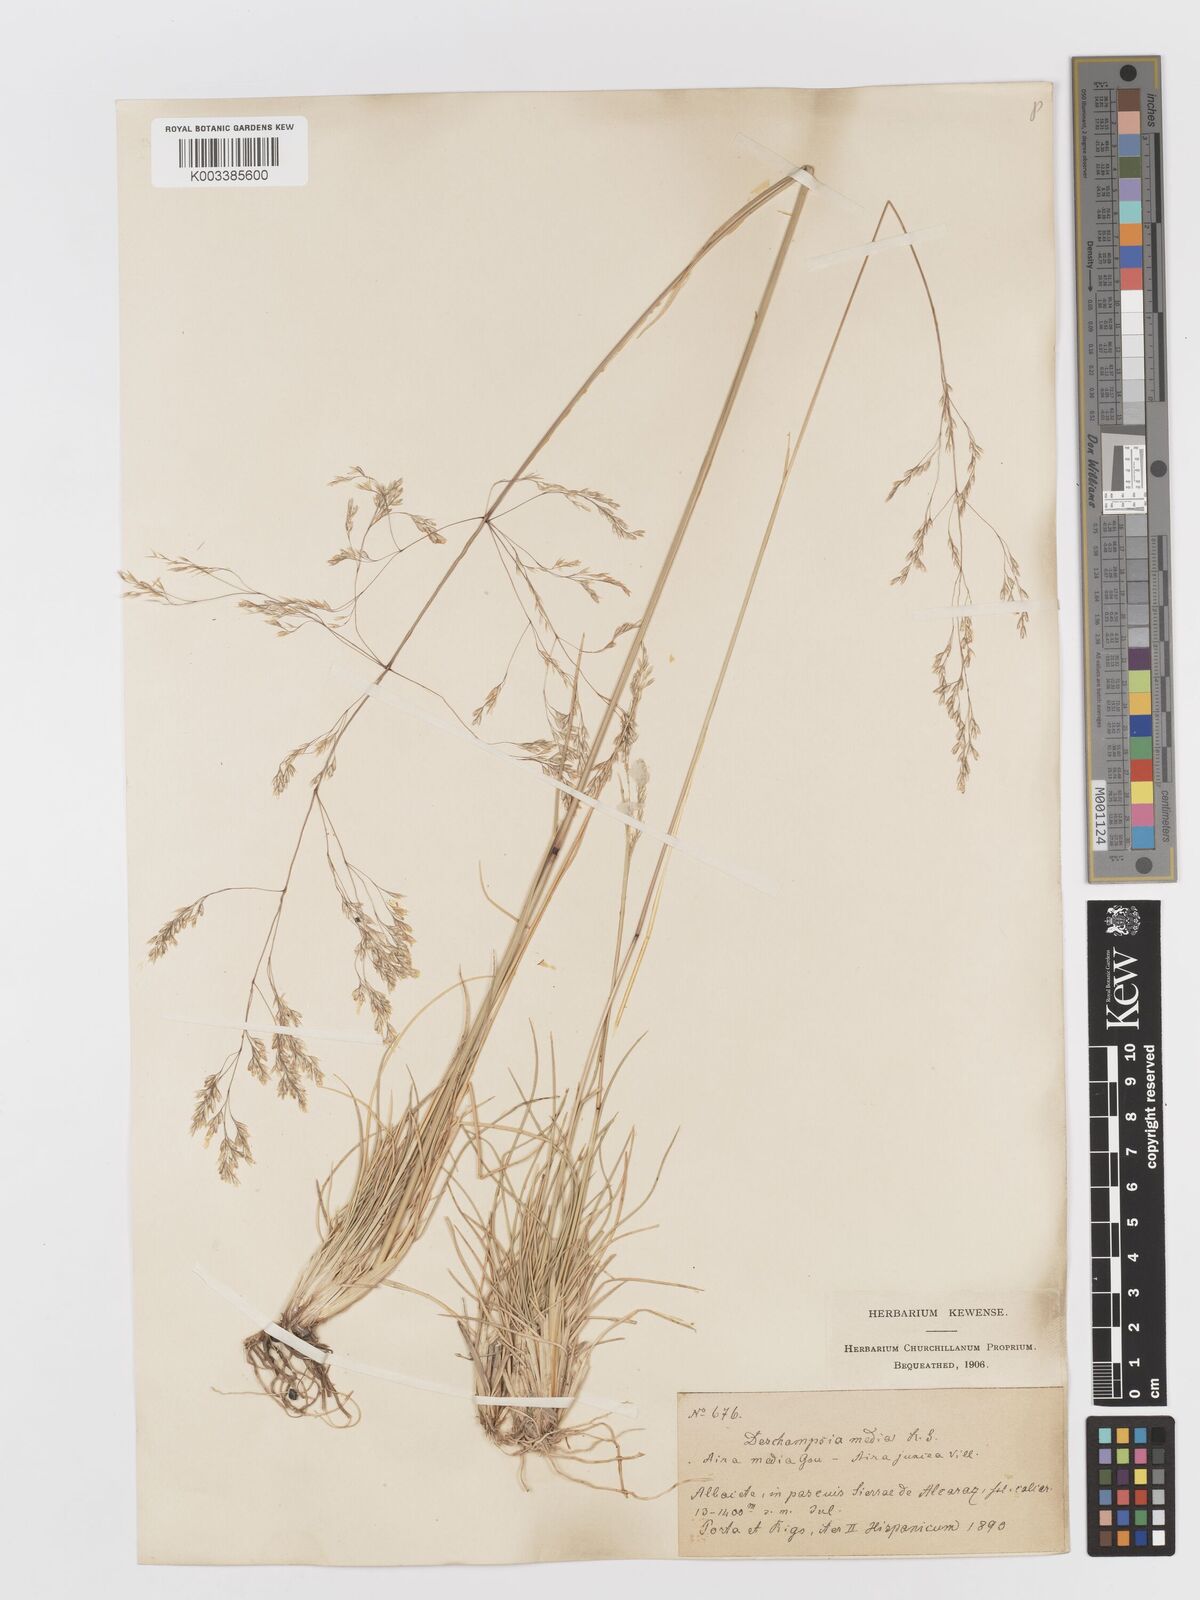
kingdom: Plantae
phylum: Tracheophyta
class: Liliopsida
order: Poales
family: Poaceae
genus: Deschampsia
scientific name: Deschampsia media
